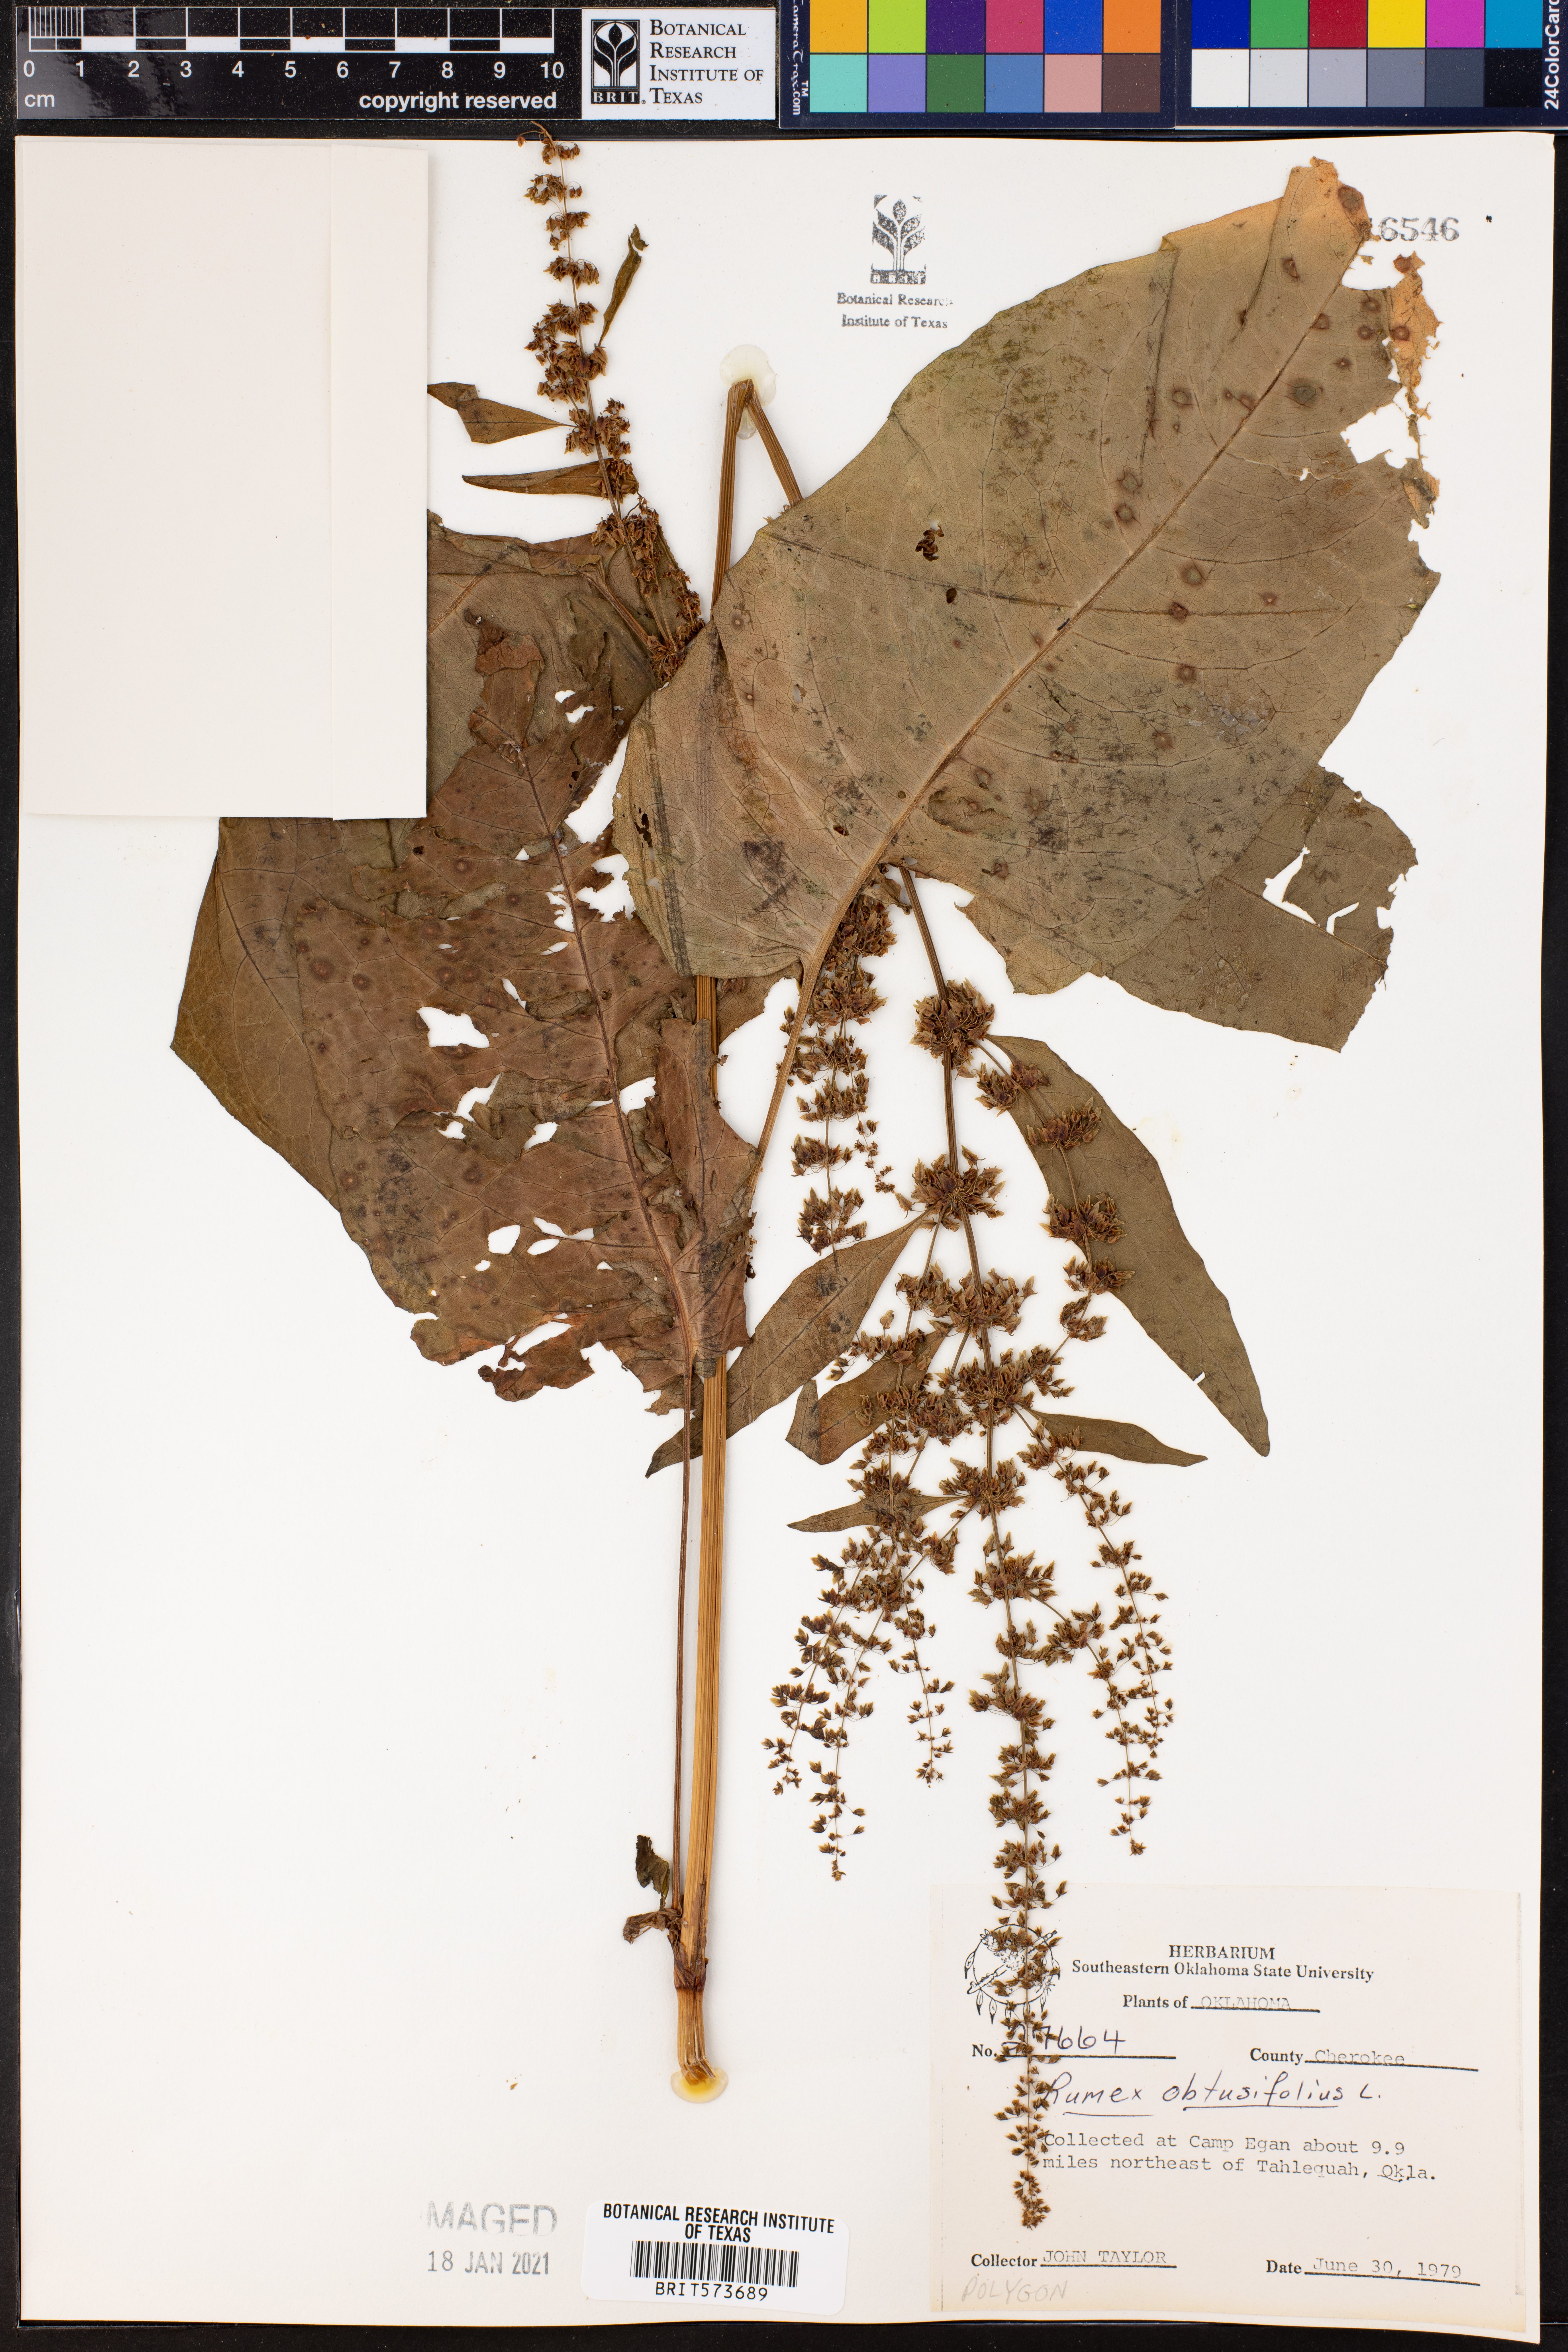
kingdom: Plantae
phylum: Tracheophyta
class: Magnoliopsida
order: Caryophyllales
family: Polygonaceae
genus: Rumex
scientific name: Rumex obtusifolius
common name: Bitter dock
